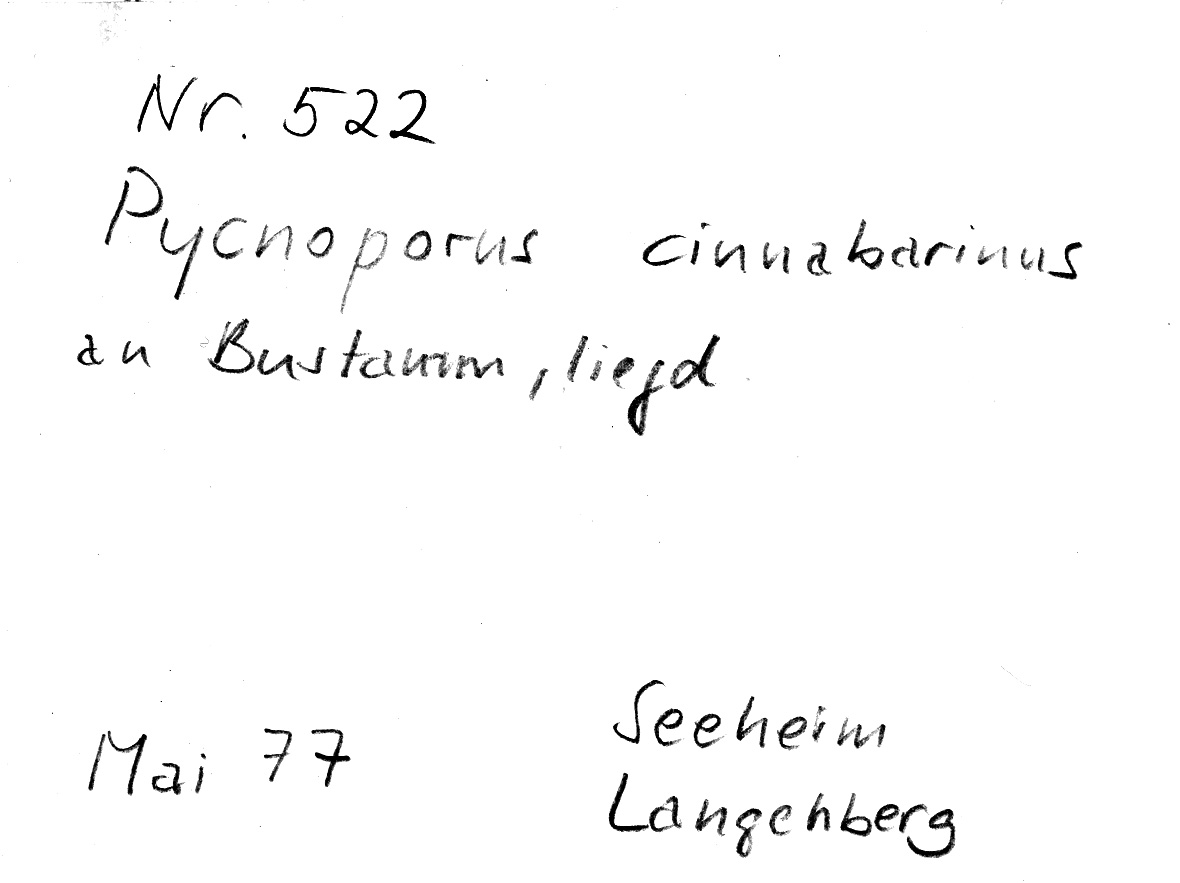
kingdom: Fungi
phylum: Basidiomycota
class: Agaricomycetes
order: Polyporales
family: Polyporaceae
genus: Trametes
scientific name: Trametes coccinea
